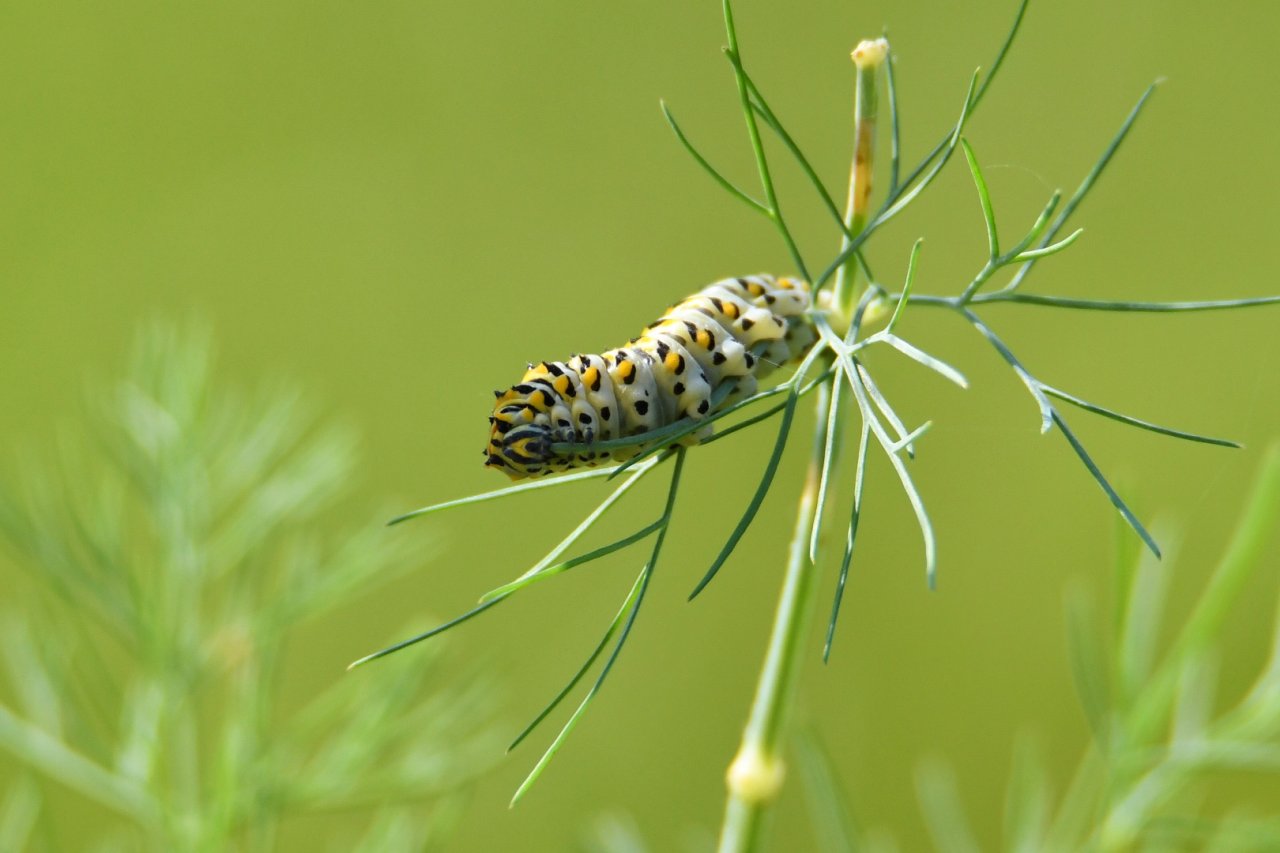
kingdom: Animalia
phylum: Arthropoda
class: Insecta
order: Lepidoptera
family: Papilionidae
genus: Papilio
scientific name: Papilio polyxenes
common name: Black Swallowtail
